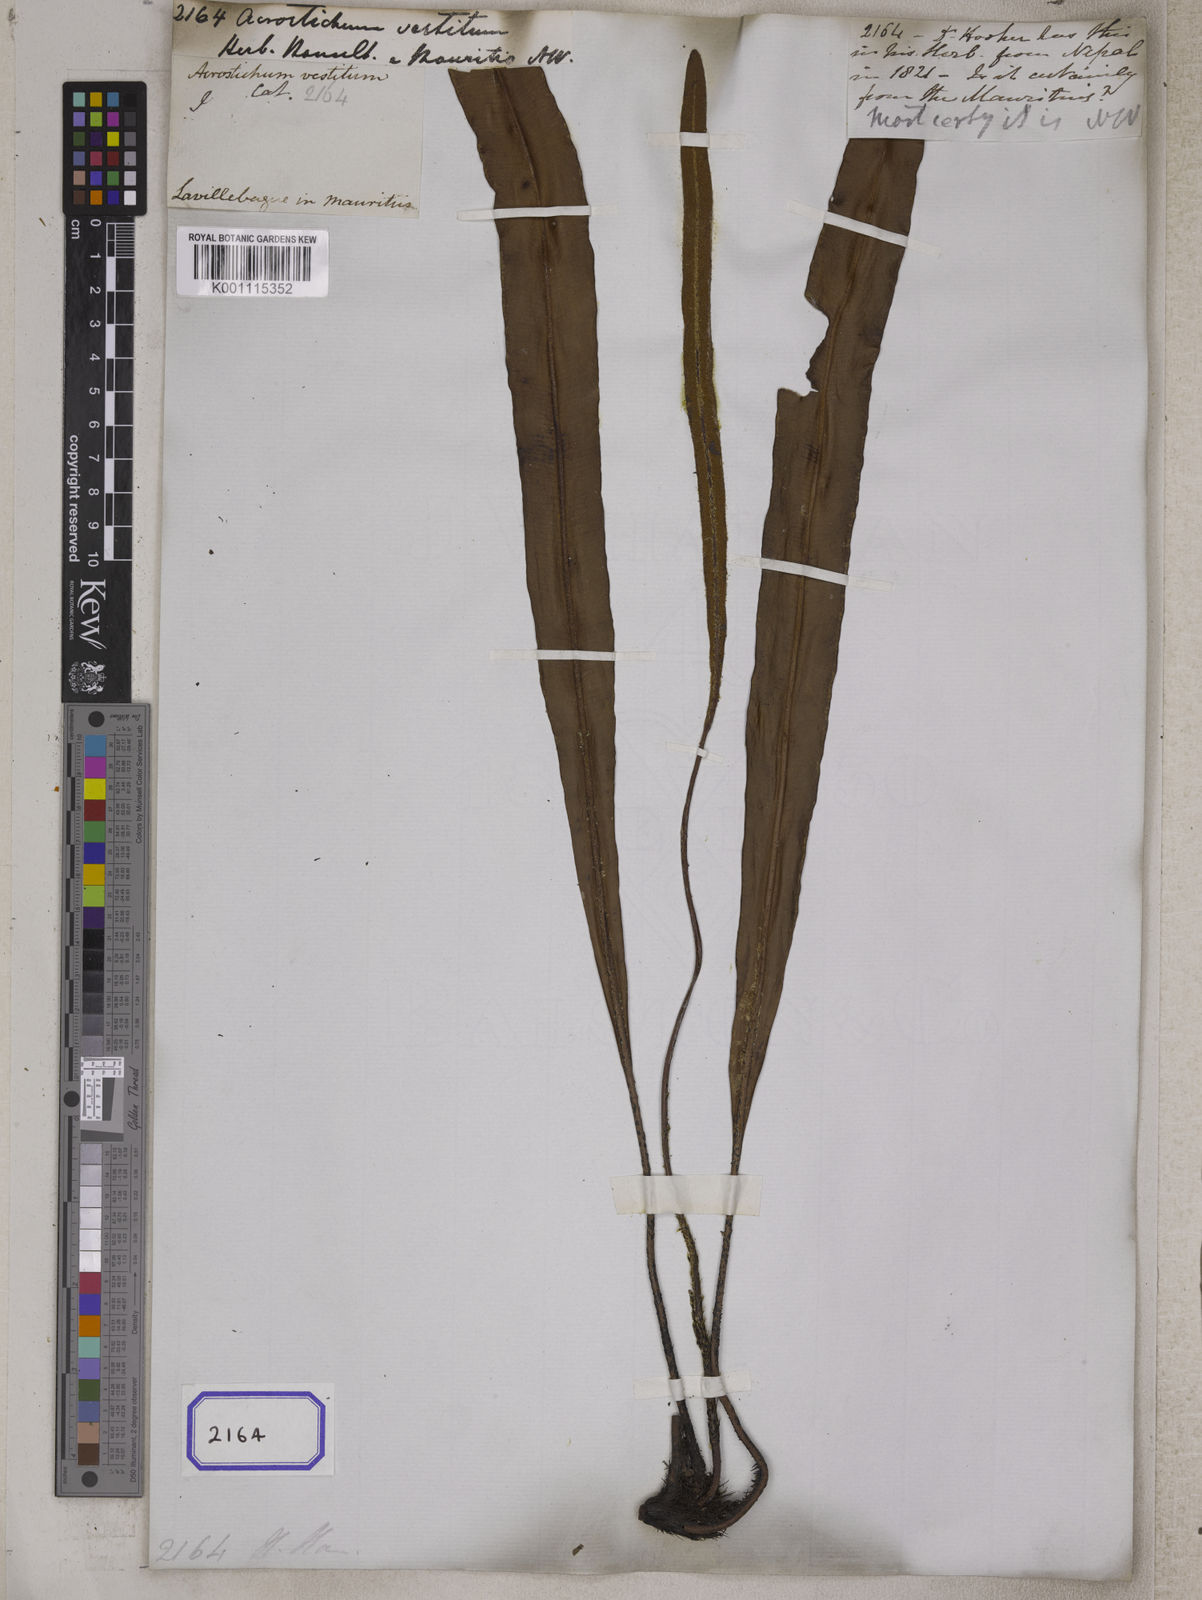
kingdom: Plantae
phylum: Tracheophyta
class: Polypodiopsida
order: Polypodiales
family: Dryopteridaceae
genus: Elaphoglossum
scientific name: Elaphoglossum tomentosum
